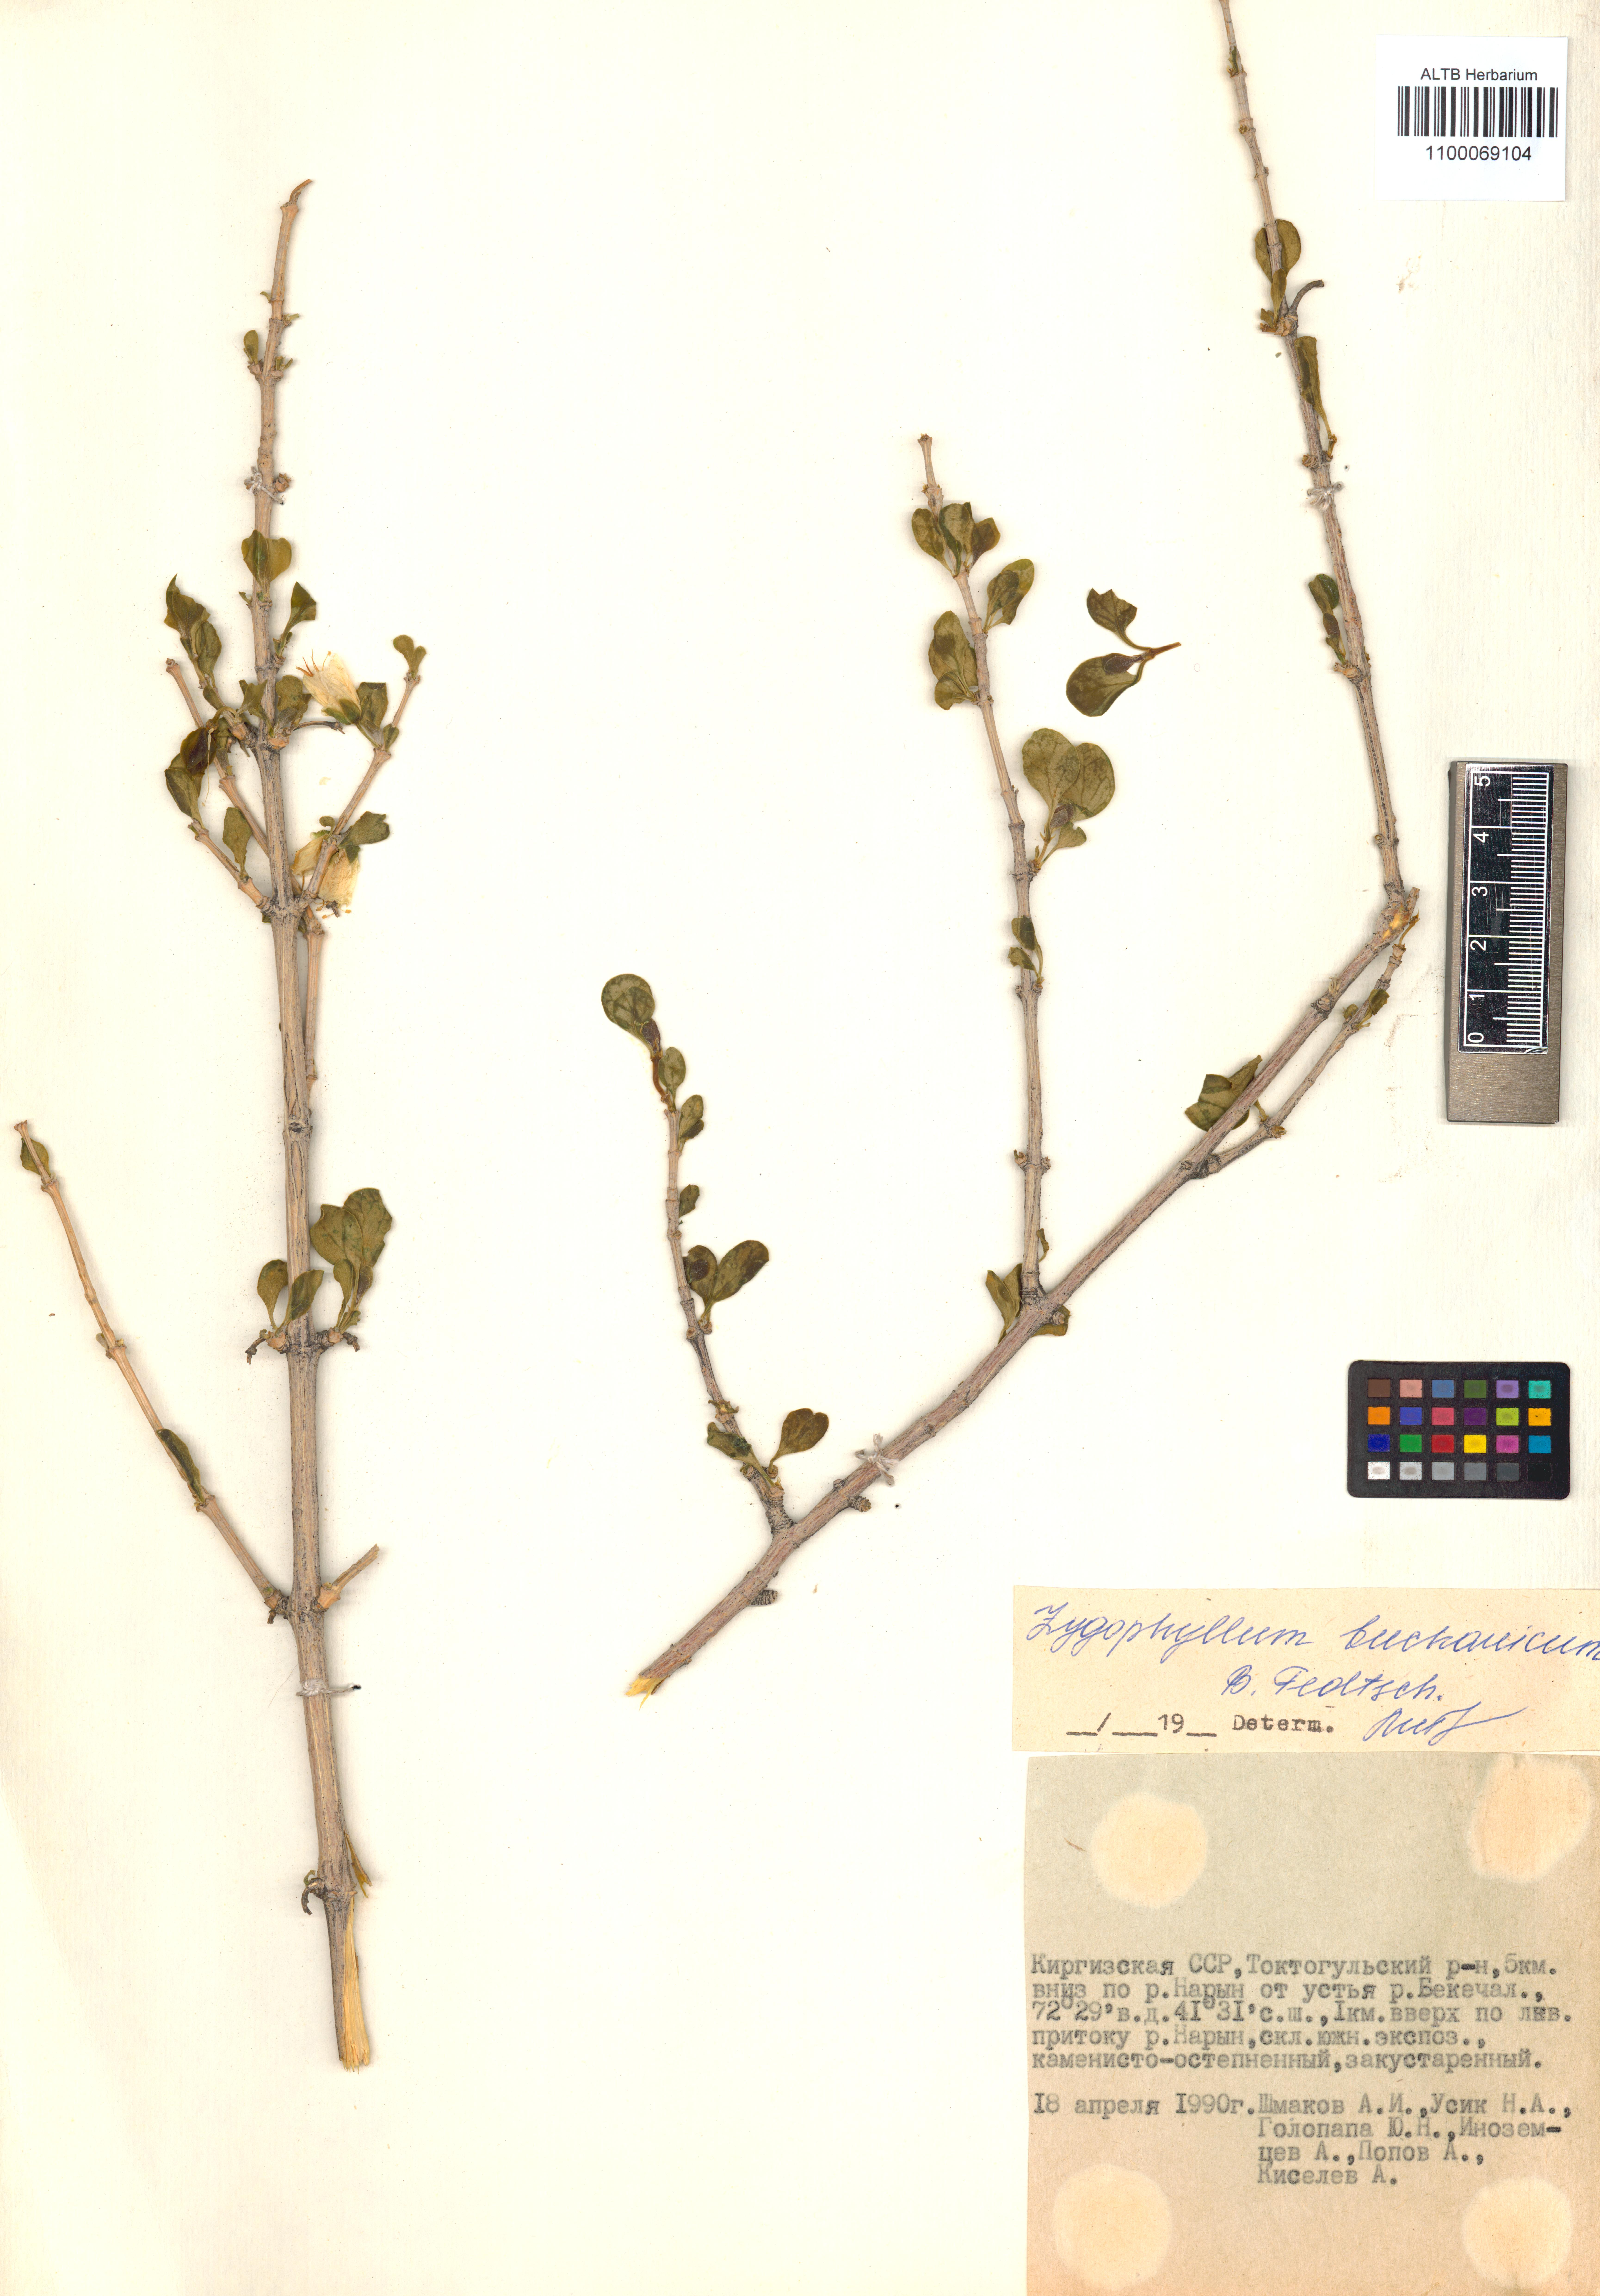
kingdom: Plantae
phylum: Tracheophyta
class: Magnoliopsida
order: Zygophyllales
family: Zygophyllaceae
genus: Tetraena
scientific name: Tetraena bucharica
